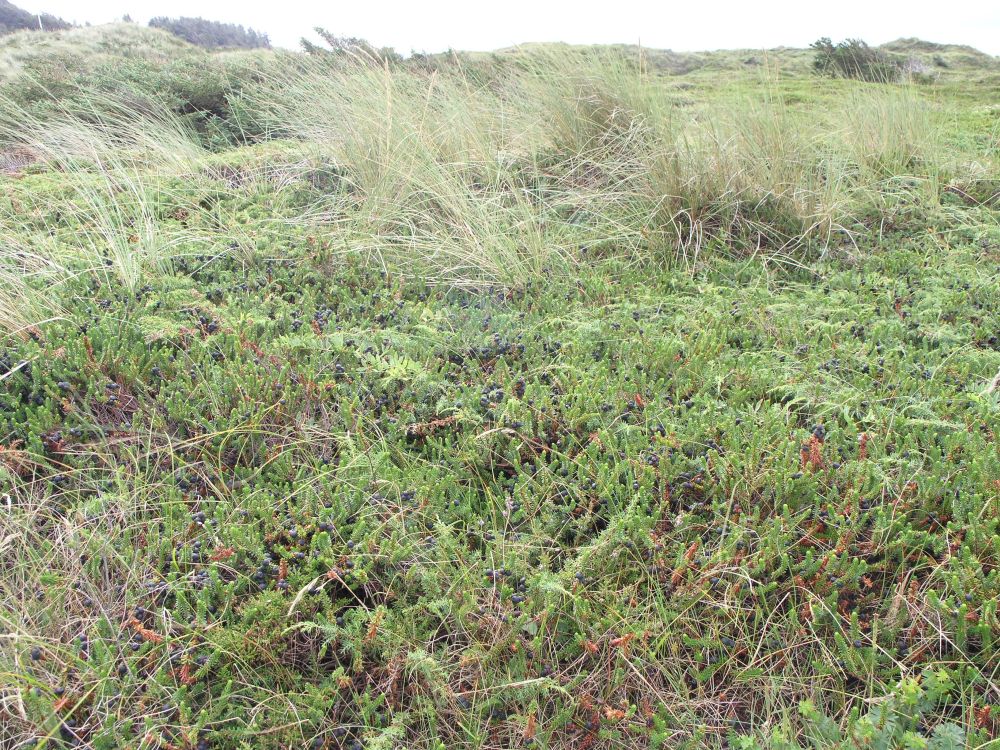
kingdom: Plantae
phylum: Tracheophyta
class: Magnoliopsida
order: Ericales
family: Ericaceae
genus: Empetrum
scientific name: Empetrum hermaphroditum
